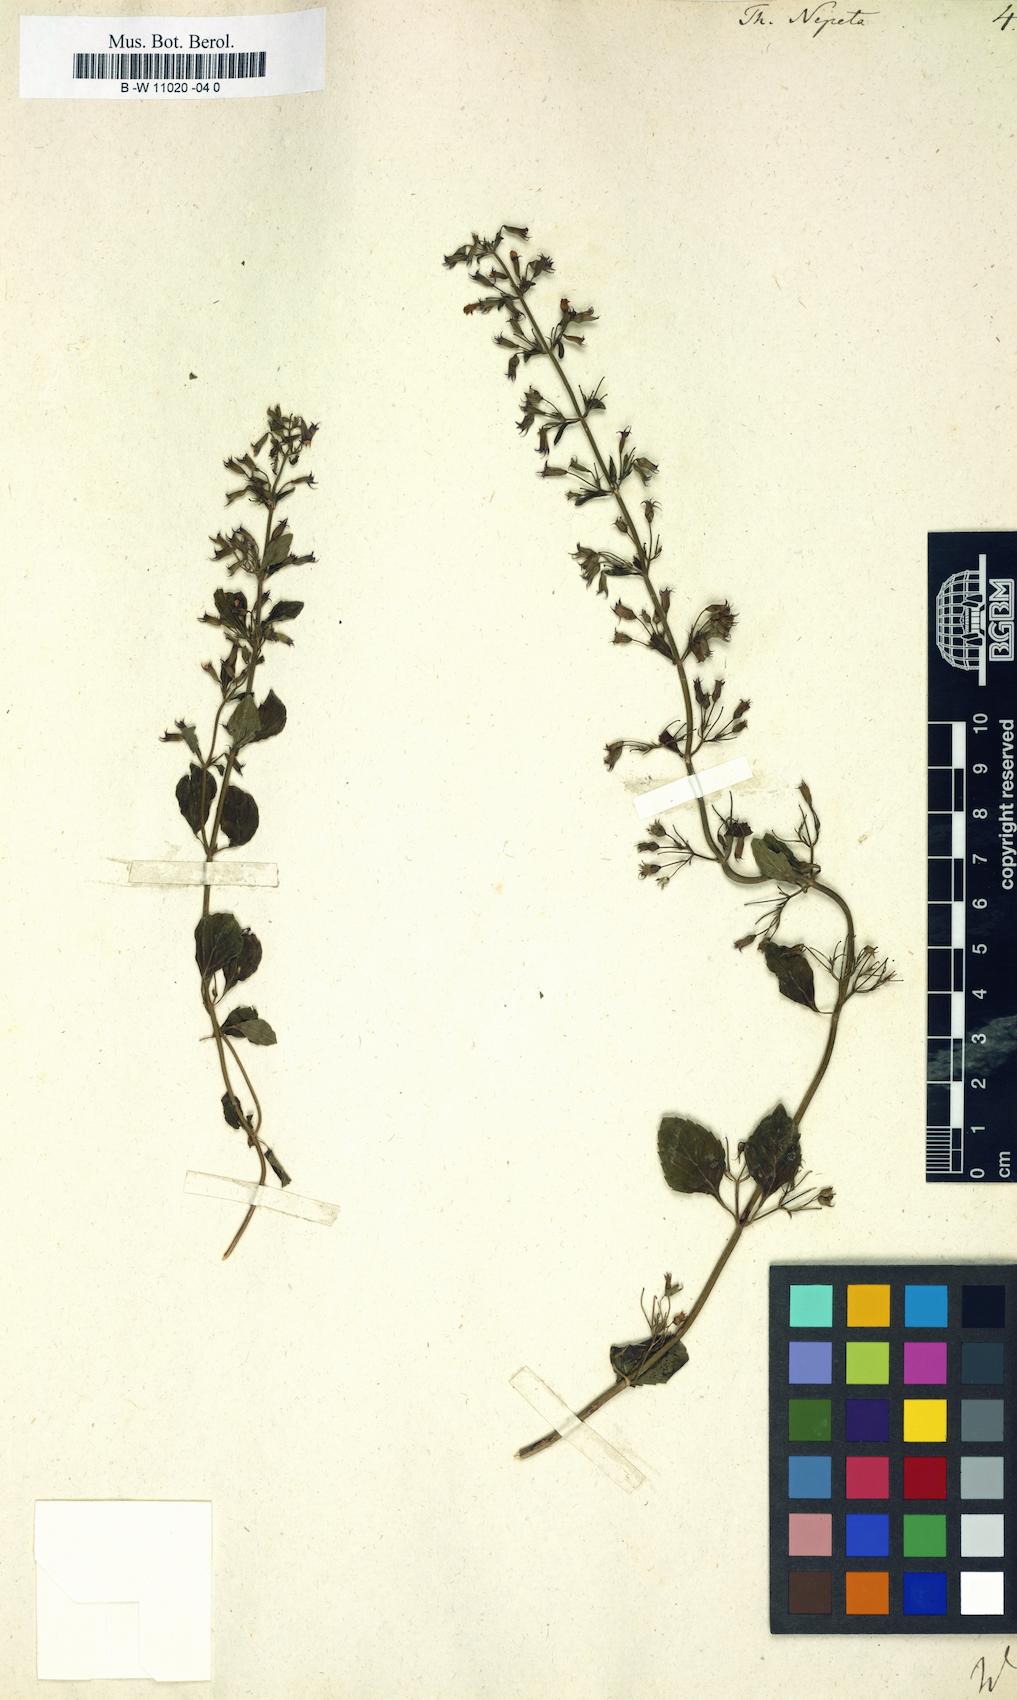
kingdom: Plantae
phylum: Tracheophyta
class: Magnoliopsida
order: Lamiales
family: Lamiaceae
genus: Clinopodium
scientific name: Clinopodium nepeta
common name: Lesser calamint
